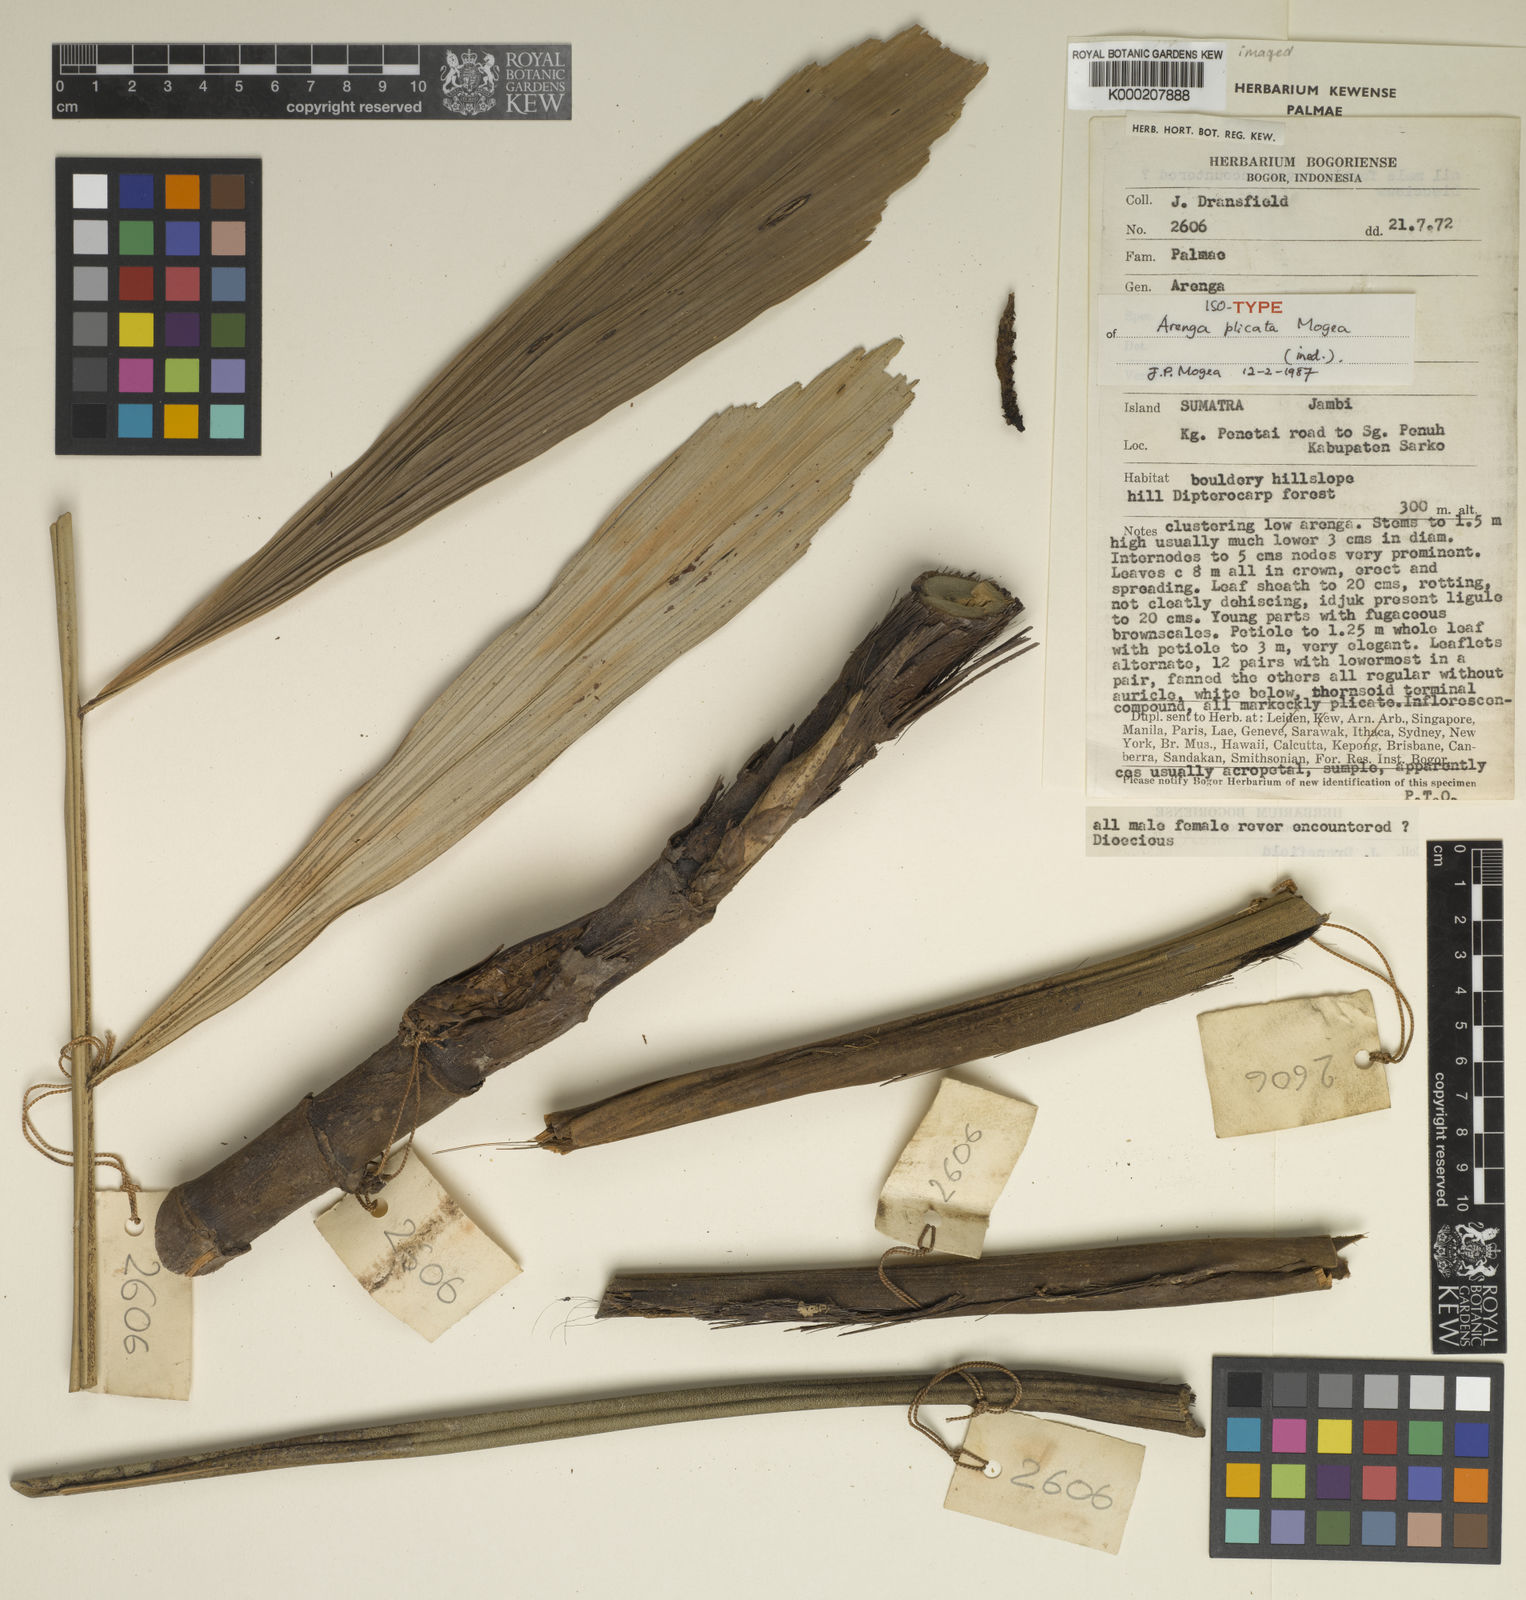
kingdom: Plantae
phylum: Tracheophyta
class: Liliopsida
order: Arecales
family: Arecaceae
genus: Arenga
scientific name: Arenga plicata
